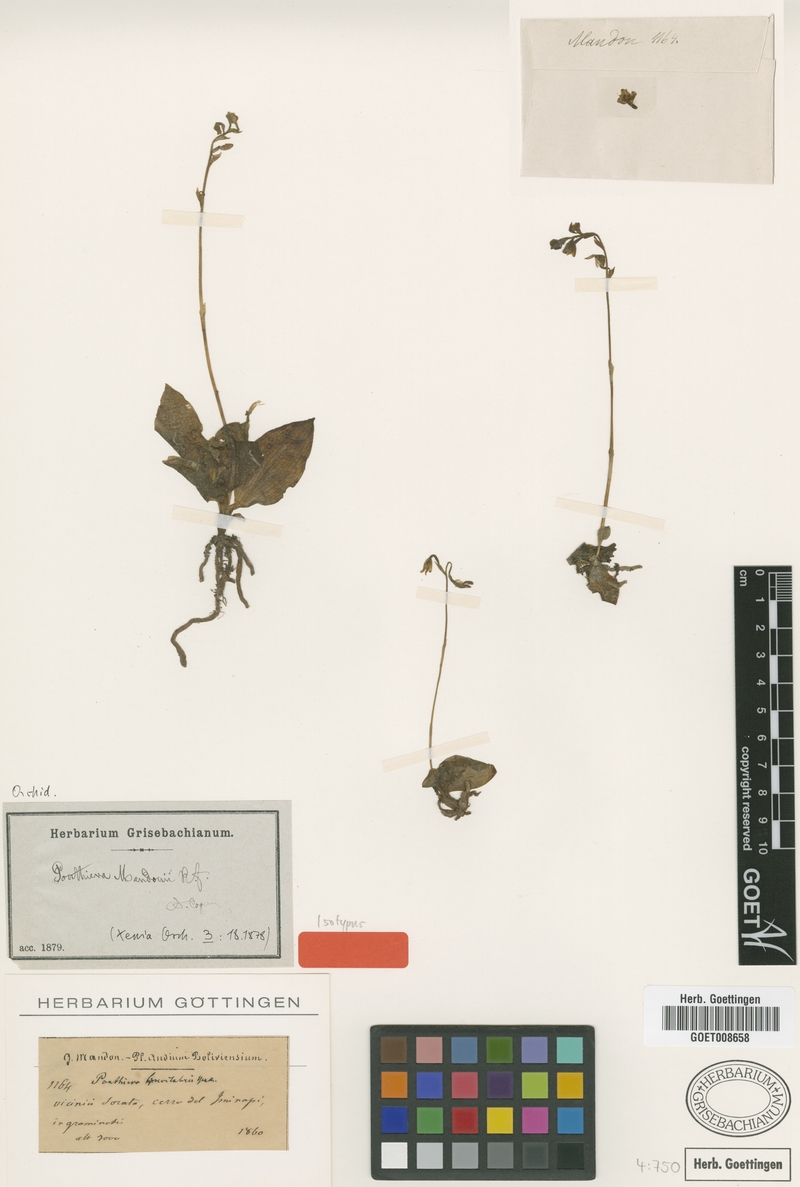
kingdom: Plantae
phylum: Tracheophyta
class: Liliopsida
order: Asparagales
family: Orchidaceae
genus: Ponthieva
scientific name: Ponthieva mandonii
